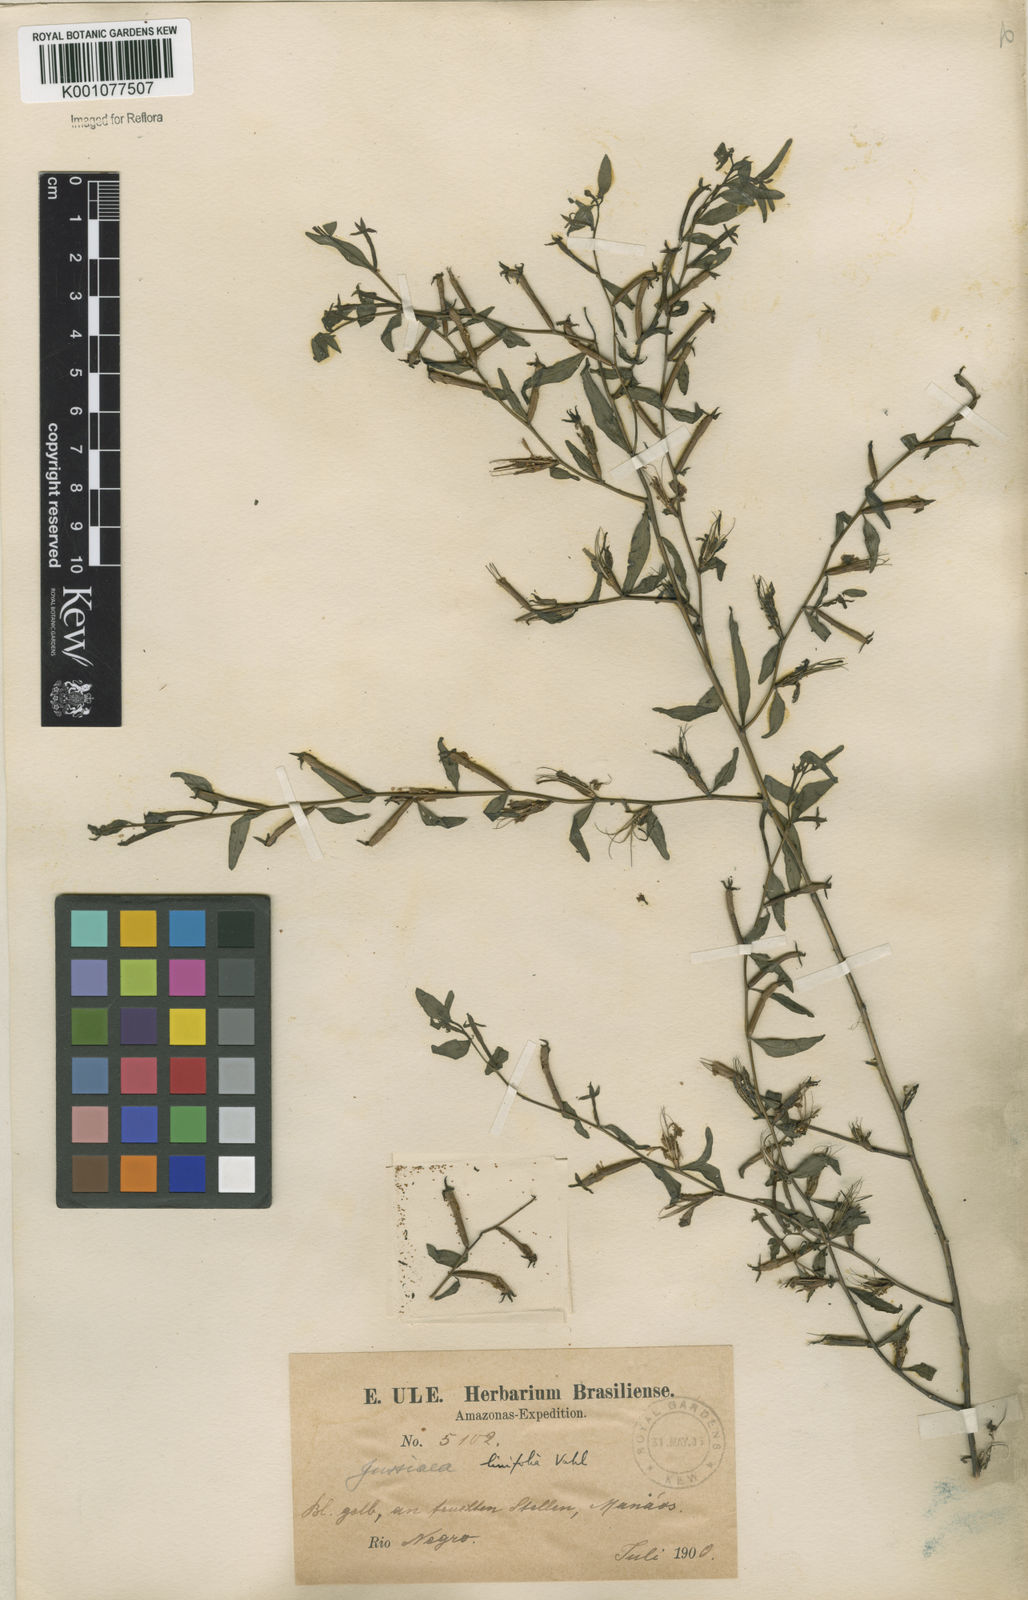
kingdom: Plantae
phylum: Tracheophyta
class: Magnoliopsida
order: Myrtales
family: Onagraceae
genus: Ludwigia
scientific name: Ludwigia hyssopifolia
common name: Linear leaf water primrose
